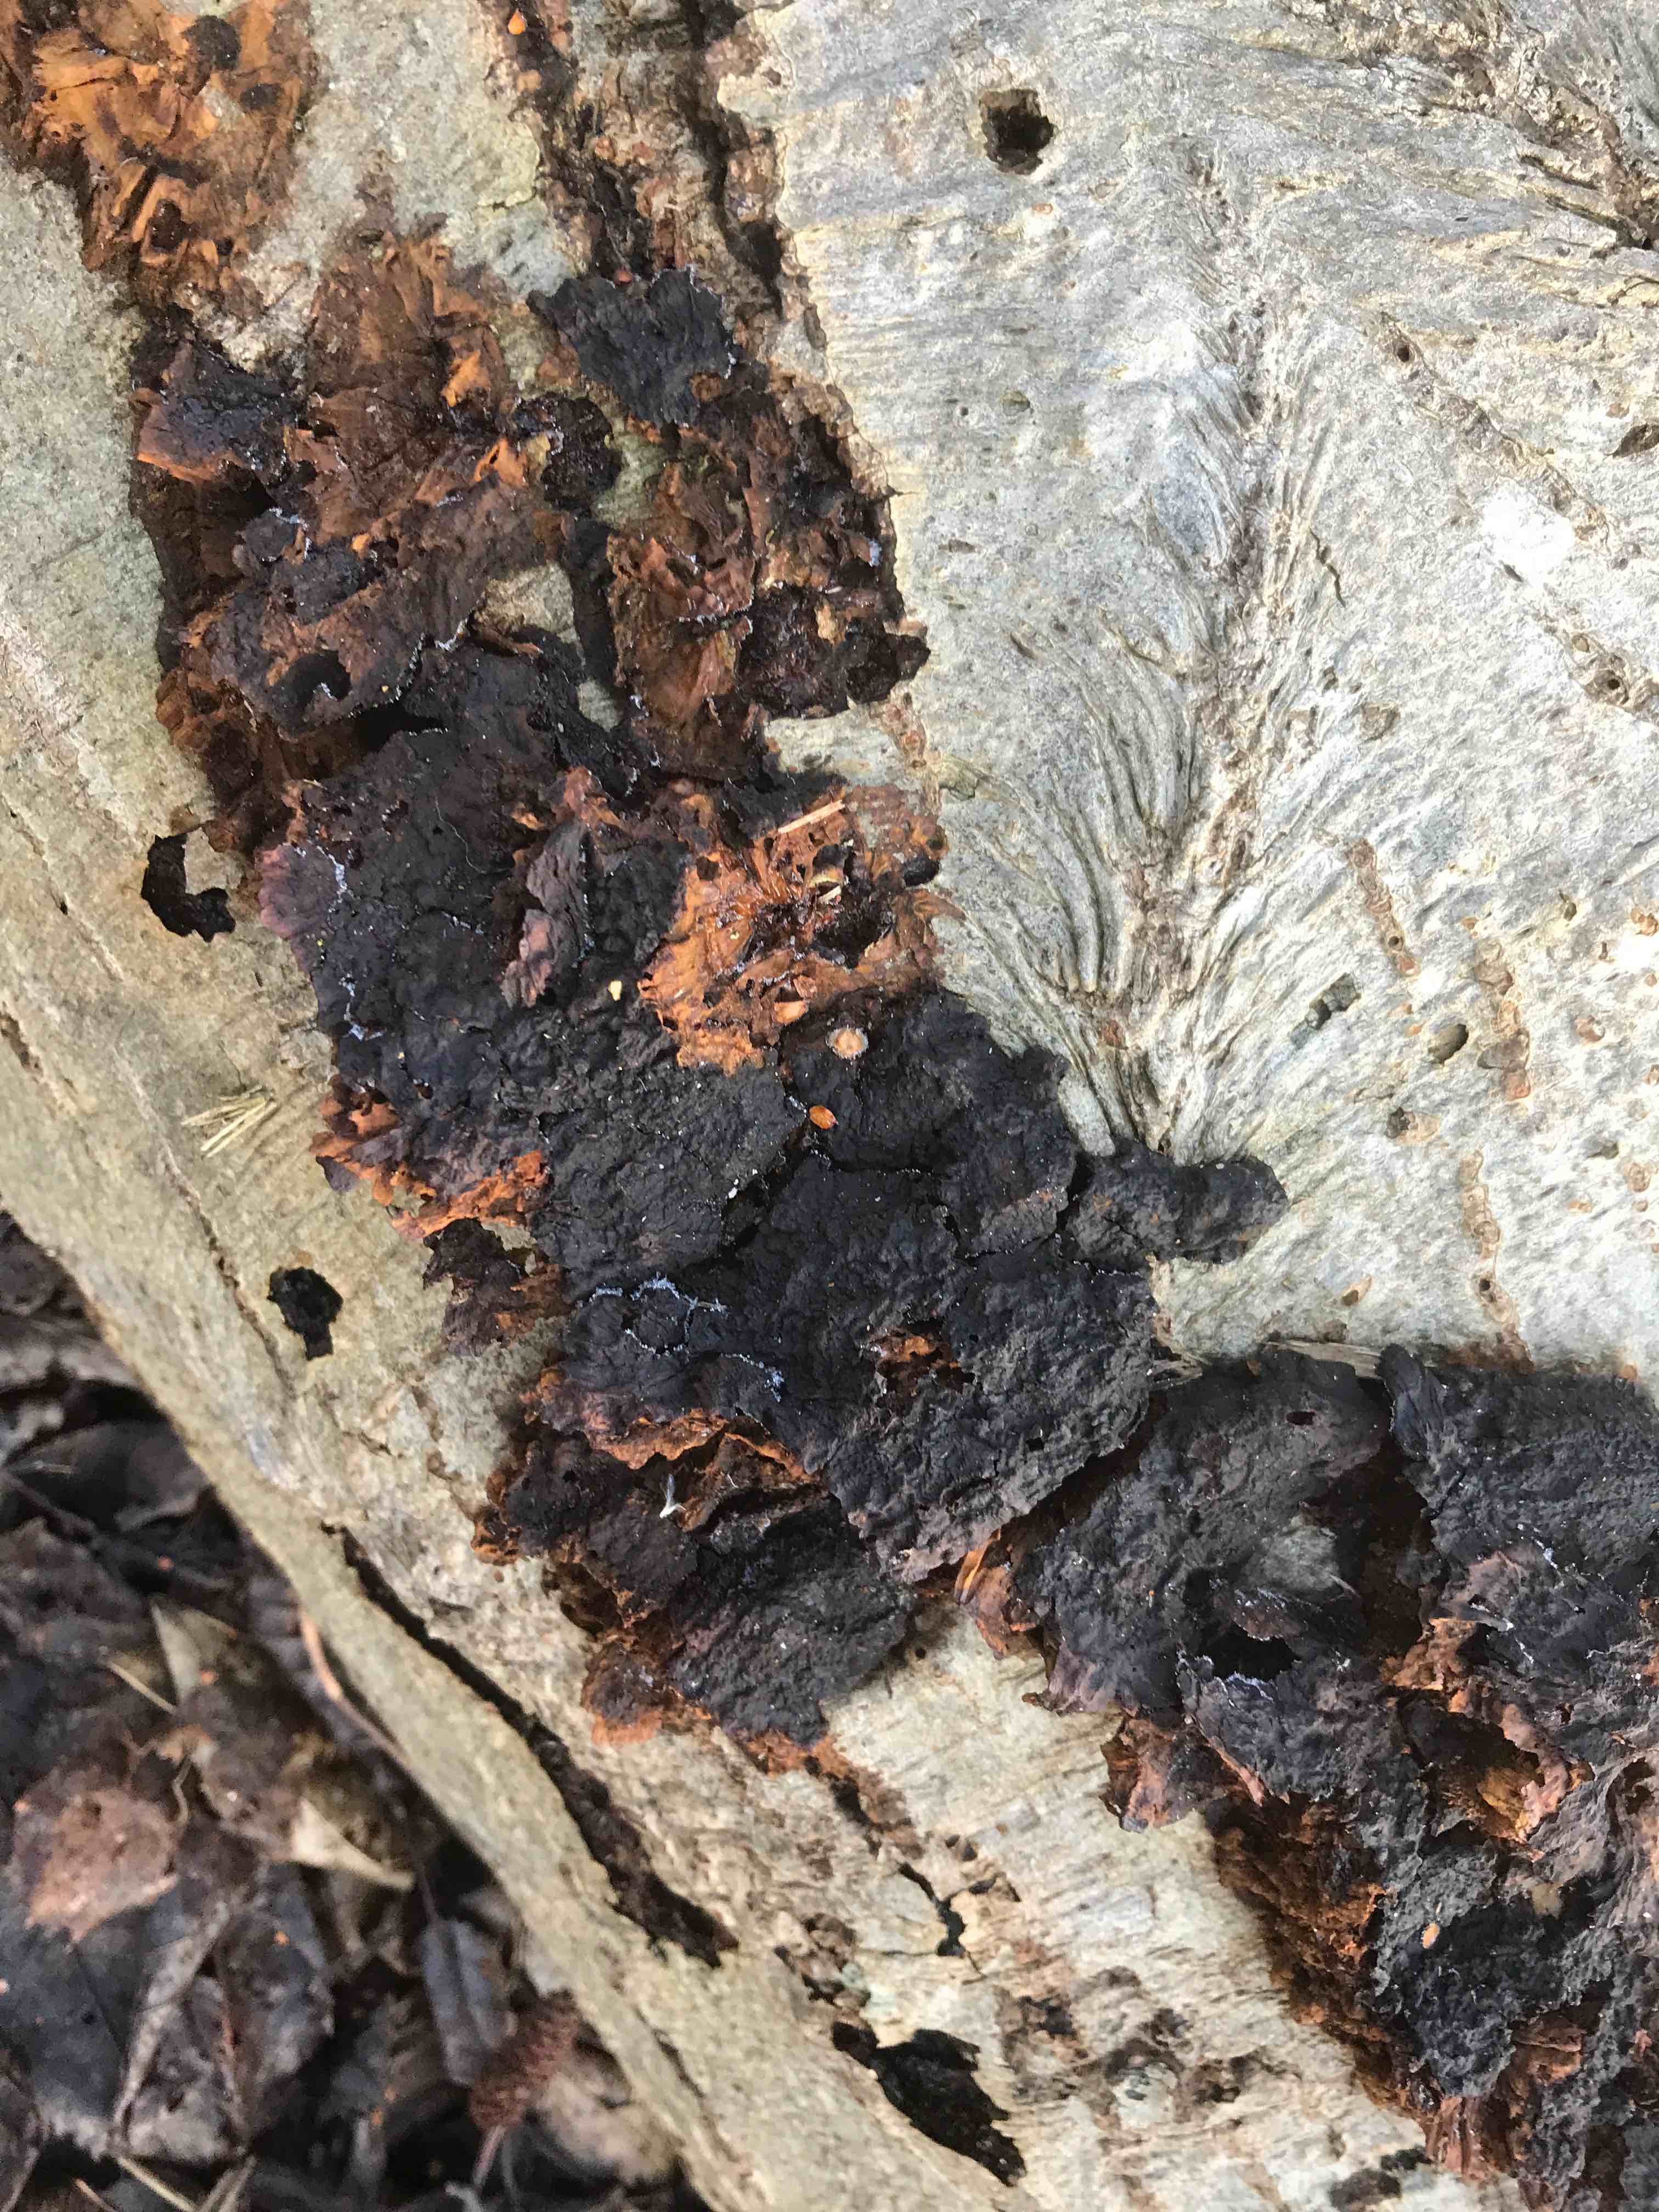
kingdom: Fungi
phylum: Basidiomycota
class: Agaricomycetes
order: Hymenochaetales
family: Hymenochaetaceae
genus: Xanthoporia
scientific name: Xanthoporia radiata
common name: elle-spejlporesvamp
